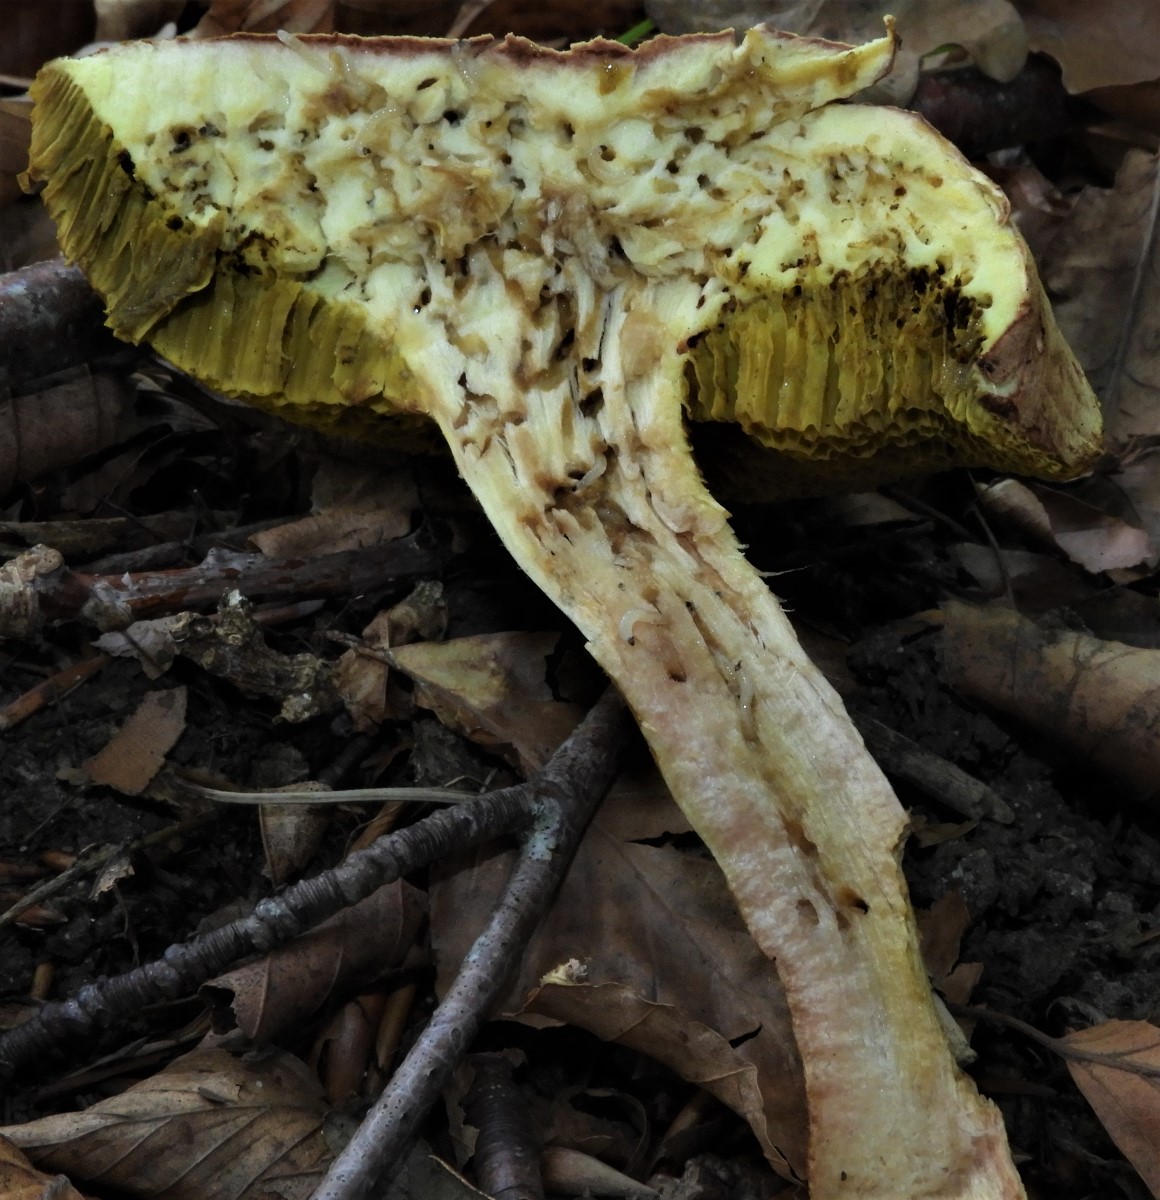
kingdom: Fungi
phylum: Basidiomycota
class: Agaricomycetes
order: Boletales
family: Boletaceae
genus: Xerocomus
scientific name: Xerocomus
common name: filtrørhat
